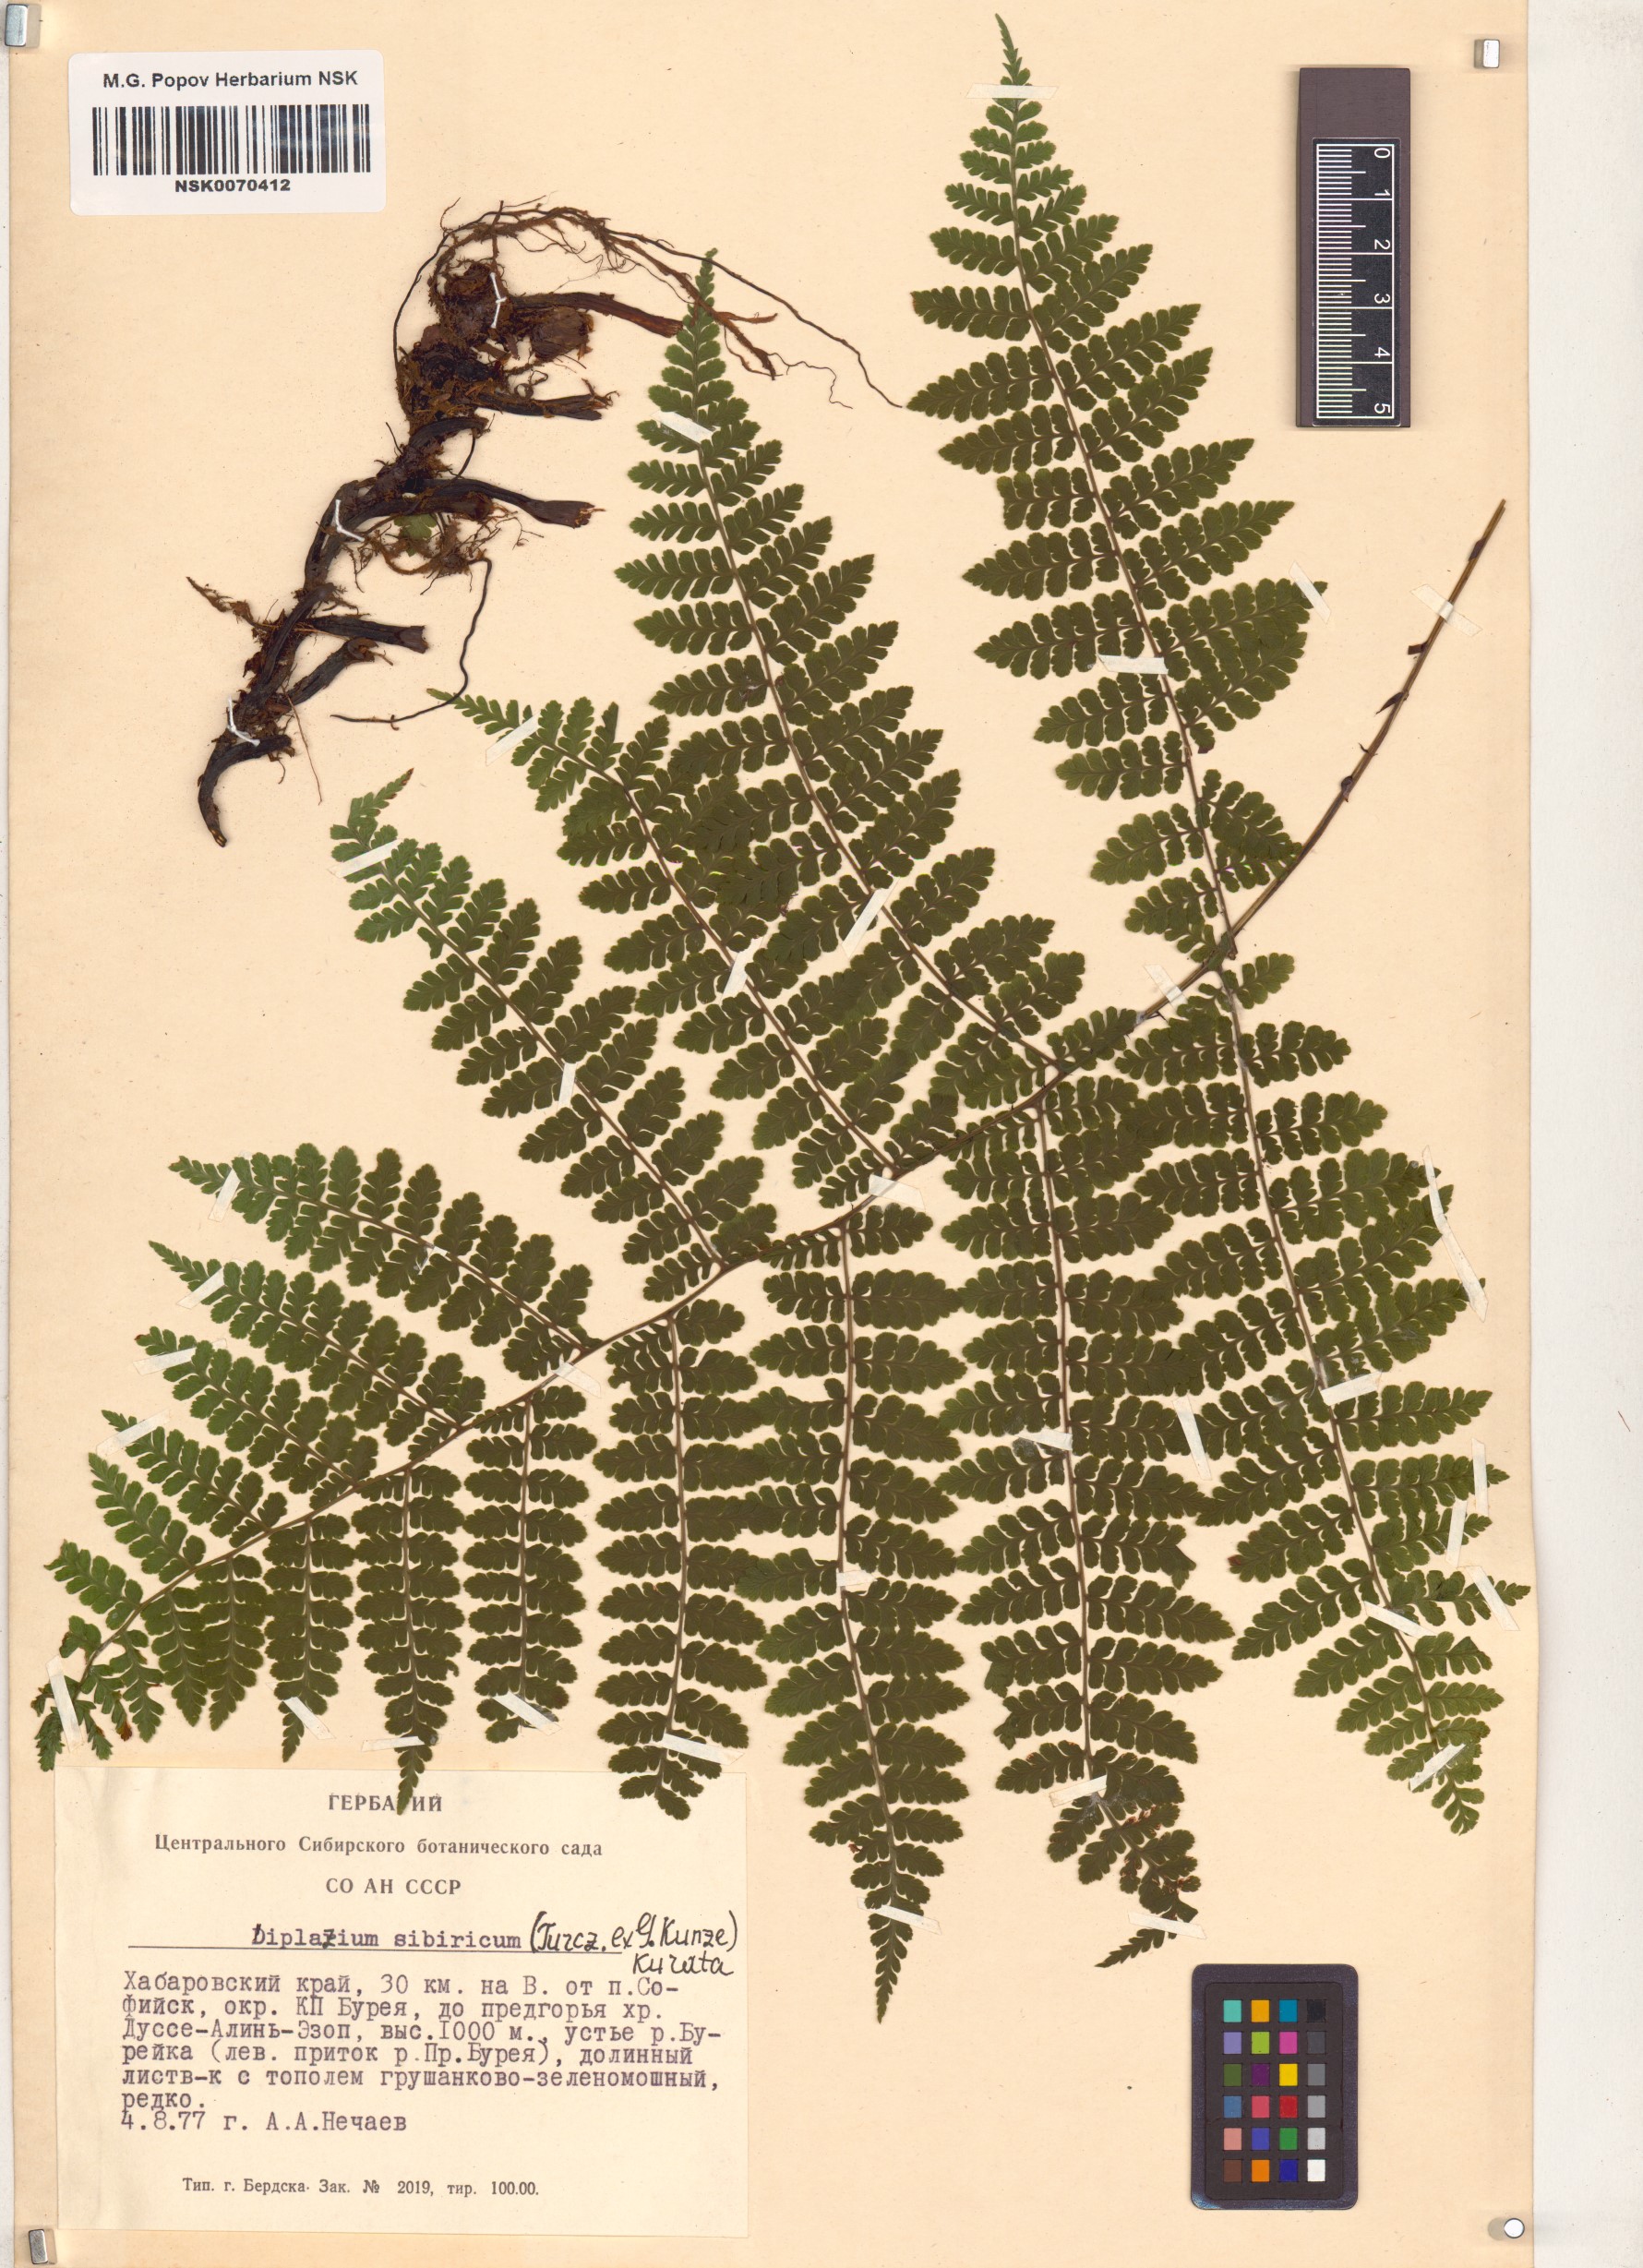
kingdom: Plantae
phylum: Tracheophyta
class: Polypodiopsida
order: Polypodiales
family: Athyriaceae
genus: Diplazium
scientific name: Diplazium sibiricum
